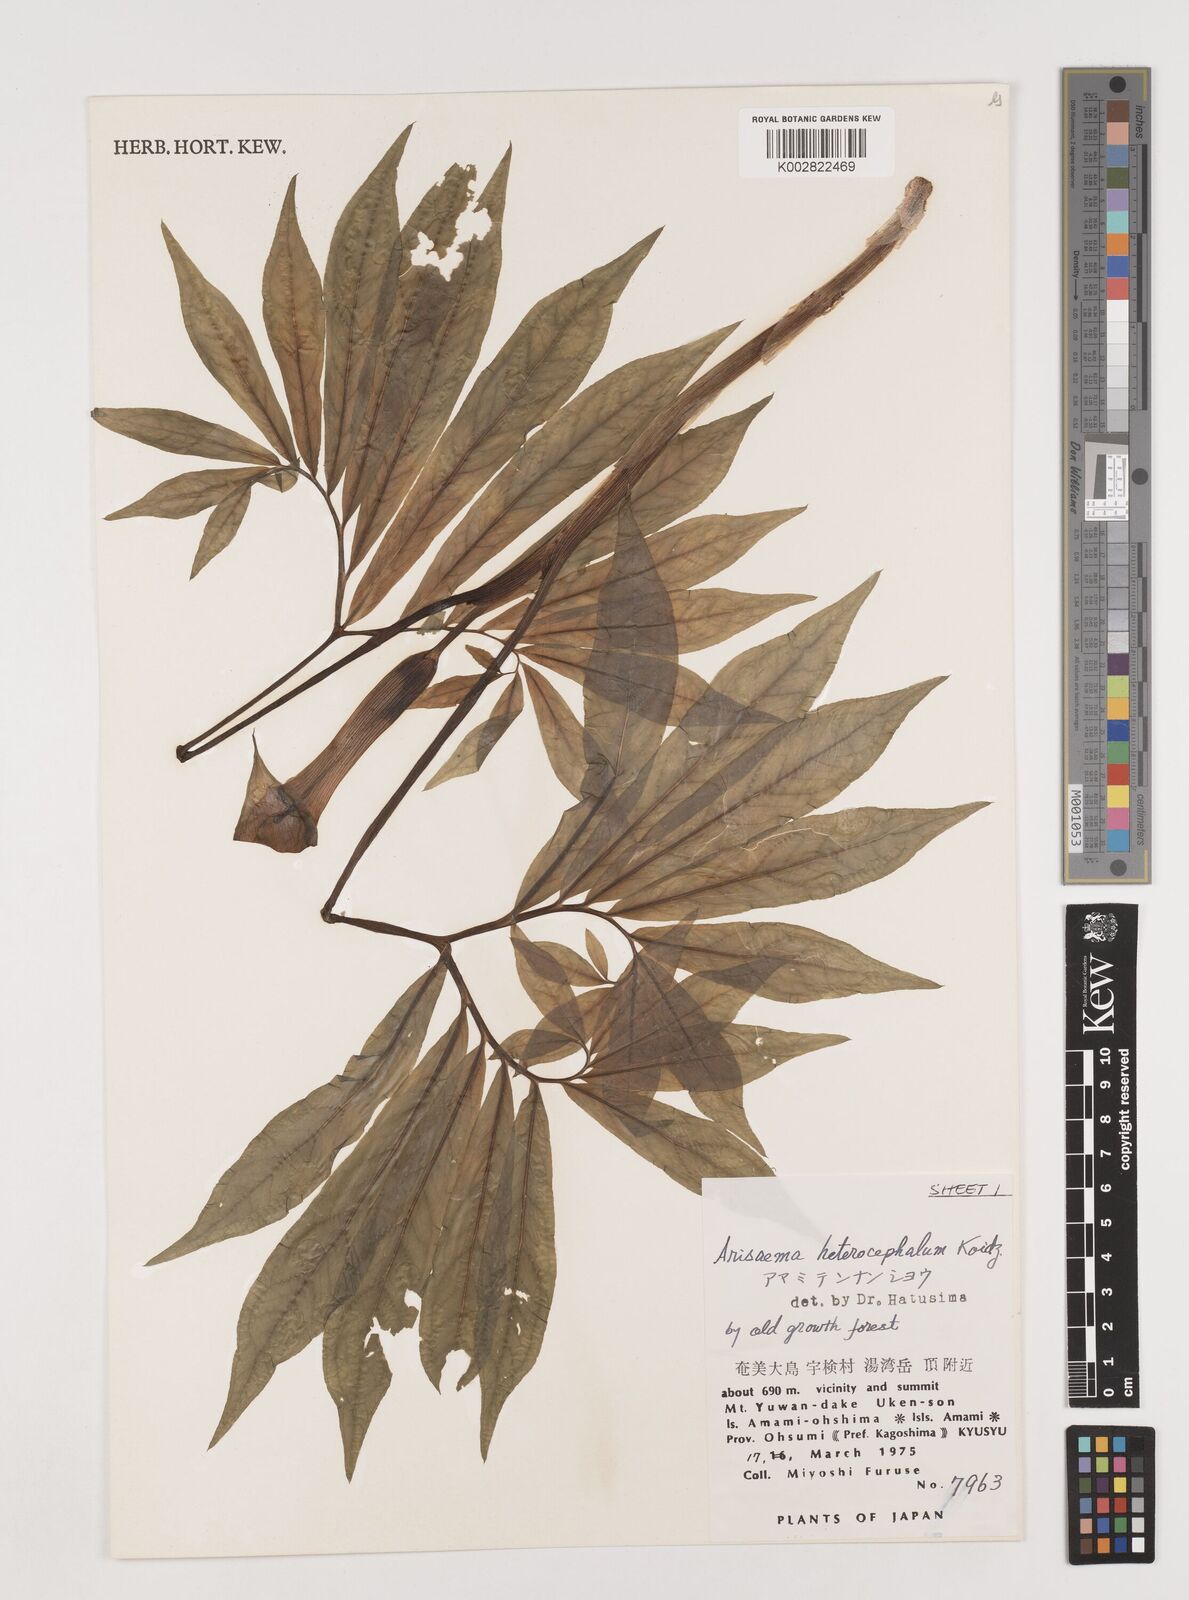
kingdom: Plantae
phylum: Tracheophyta
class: Liliopsida
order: Alismatales
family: Araceae
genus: Arisaema
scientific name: Arisaema heterocephalum
